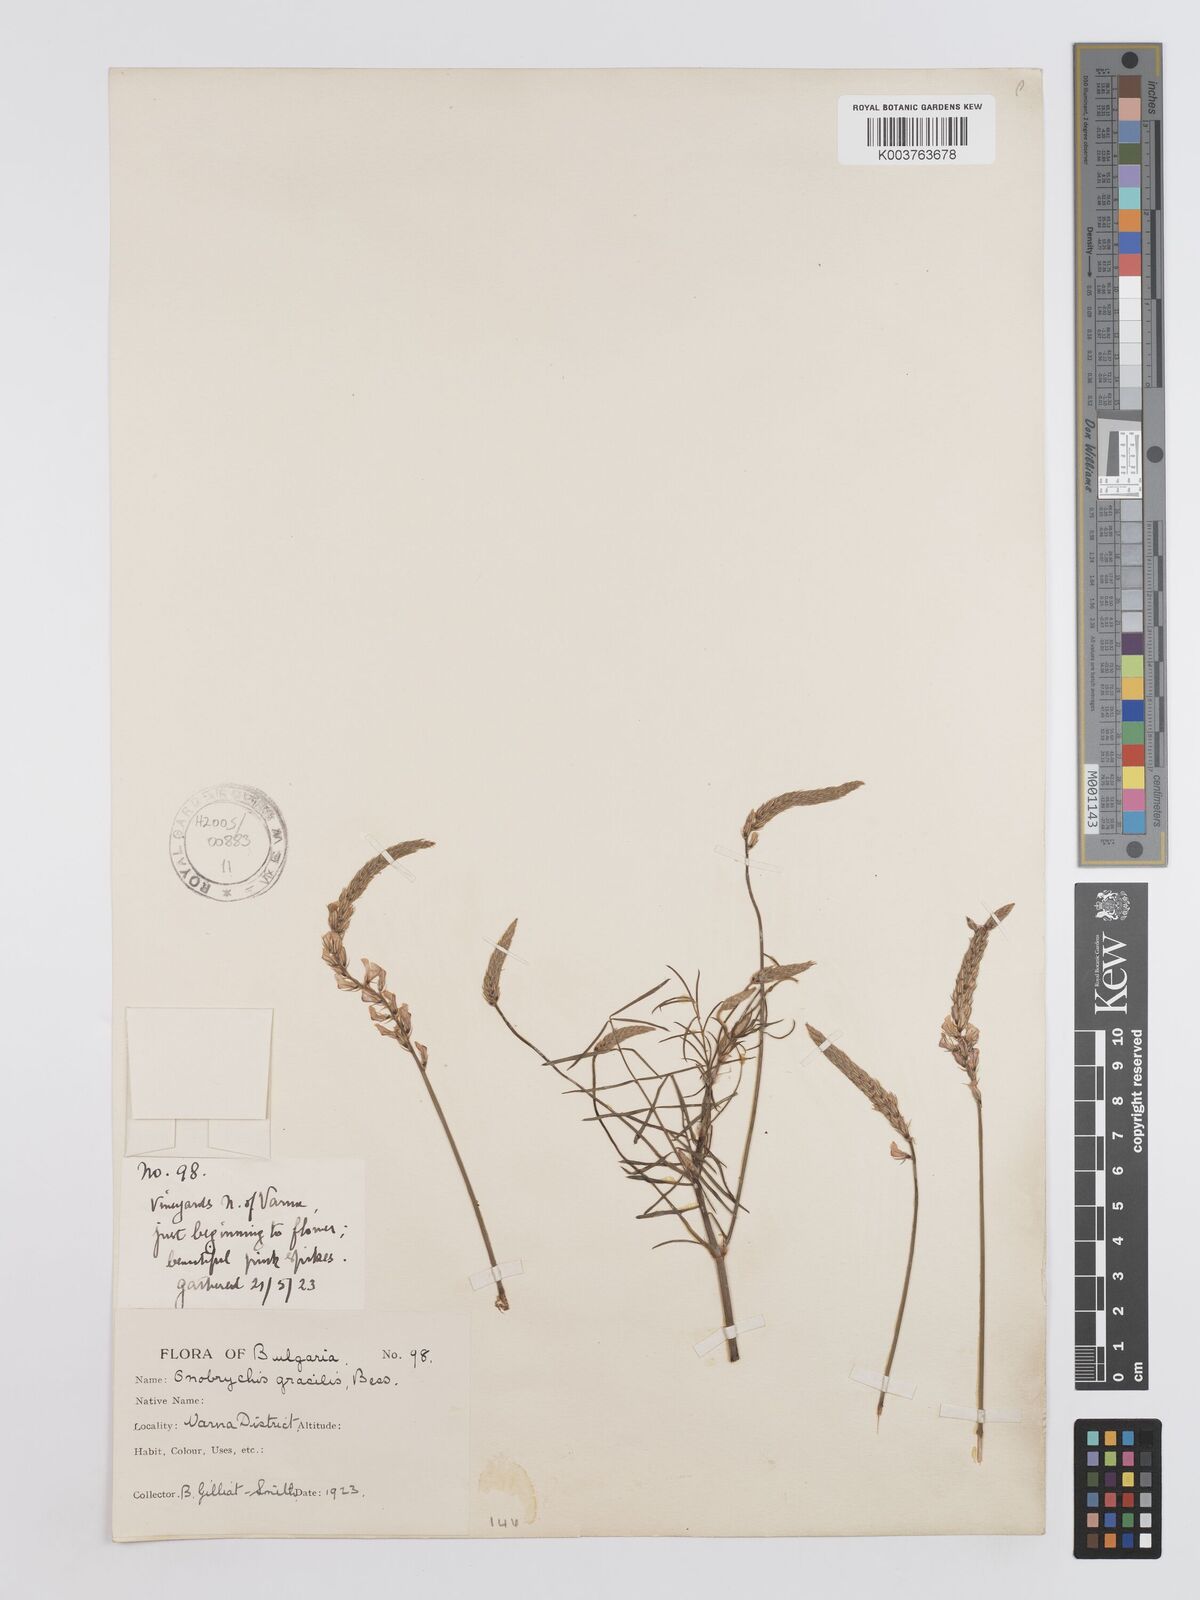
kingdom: Plantae
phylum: Tracheophyta
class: Magnoliopsida
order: Fabales
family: Fabaceae
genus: Onobrychis
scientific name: Onobrychis gracilis
